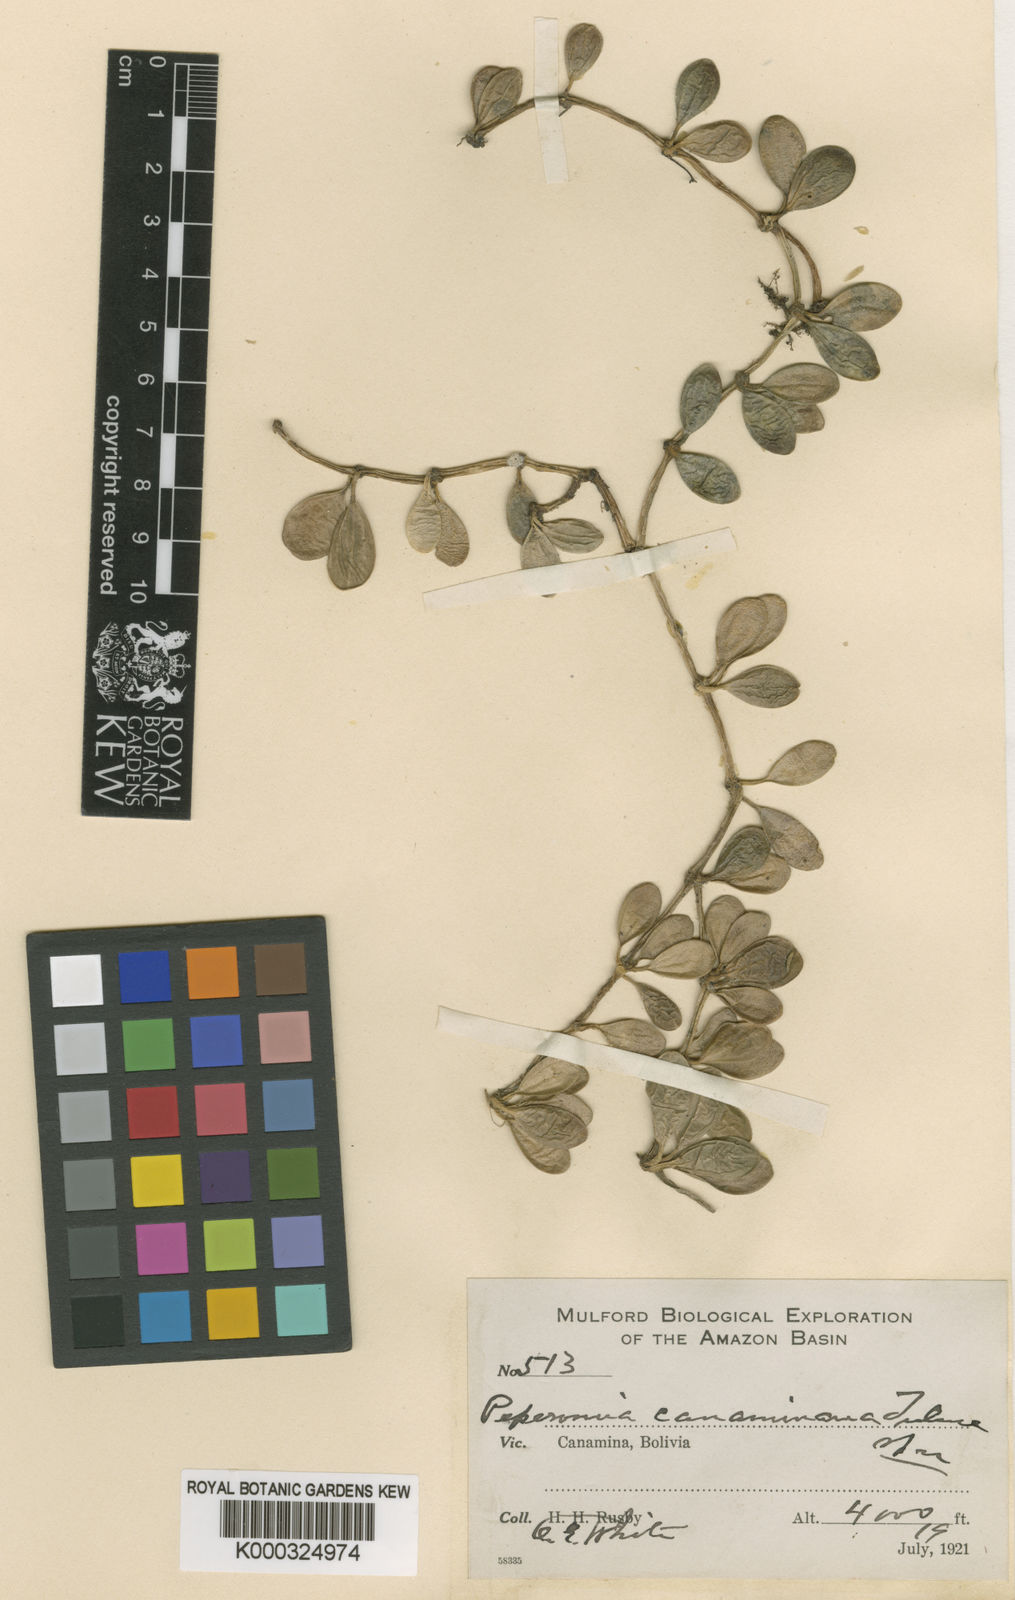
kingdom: Plantae
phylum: Tracheophyta
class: Magnoliopsida
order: Piperales
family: Piperaceae
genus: Peperomia
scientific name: Peperomia canaminana
